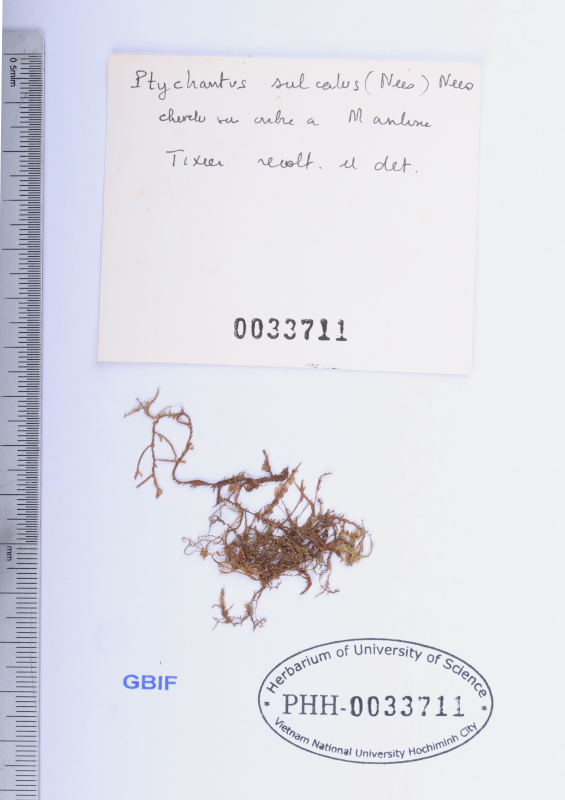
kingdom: Plantae
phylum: Marchantiophyta
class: Jungermanniopsida
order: Porellales
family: Lejeuneaceae
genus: Spruceanthus
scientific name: Spruceanthus sulcatus
